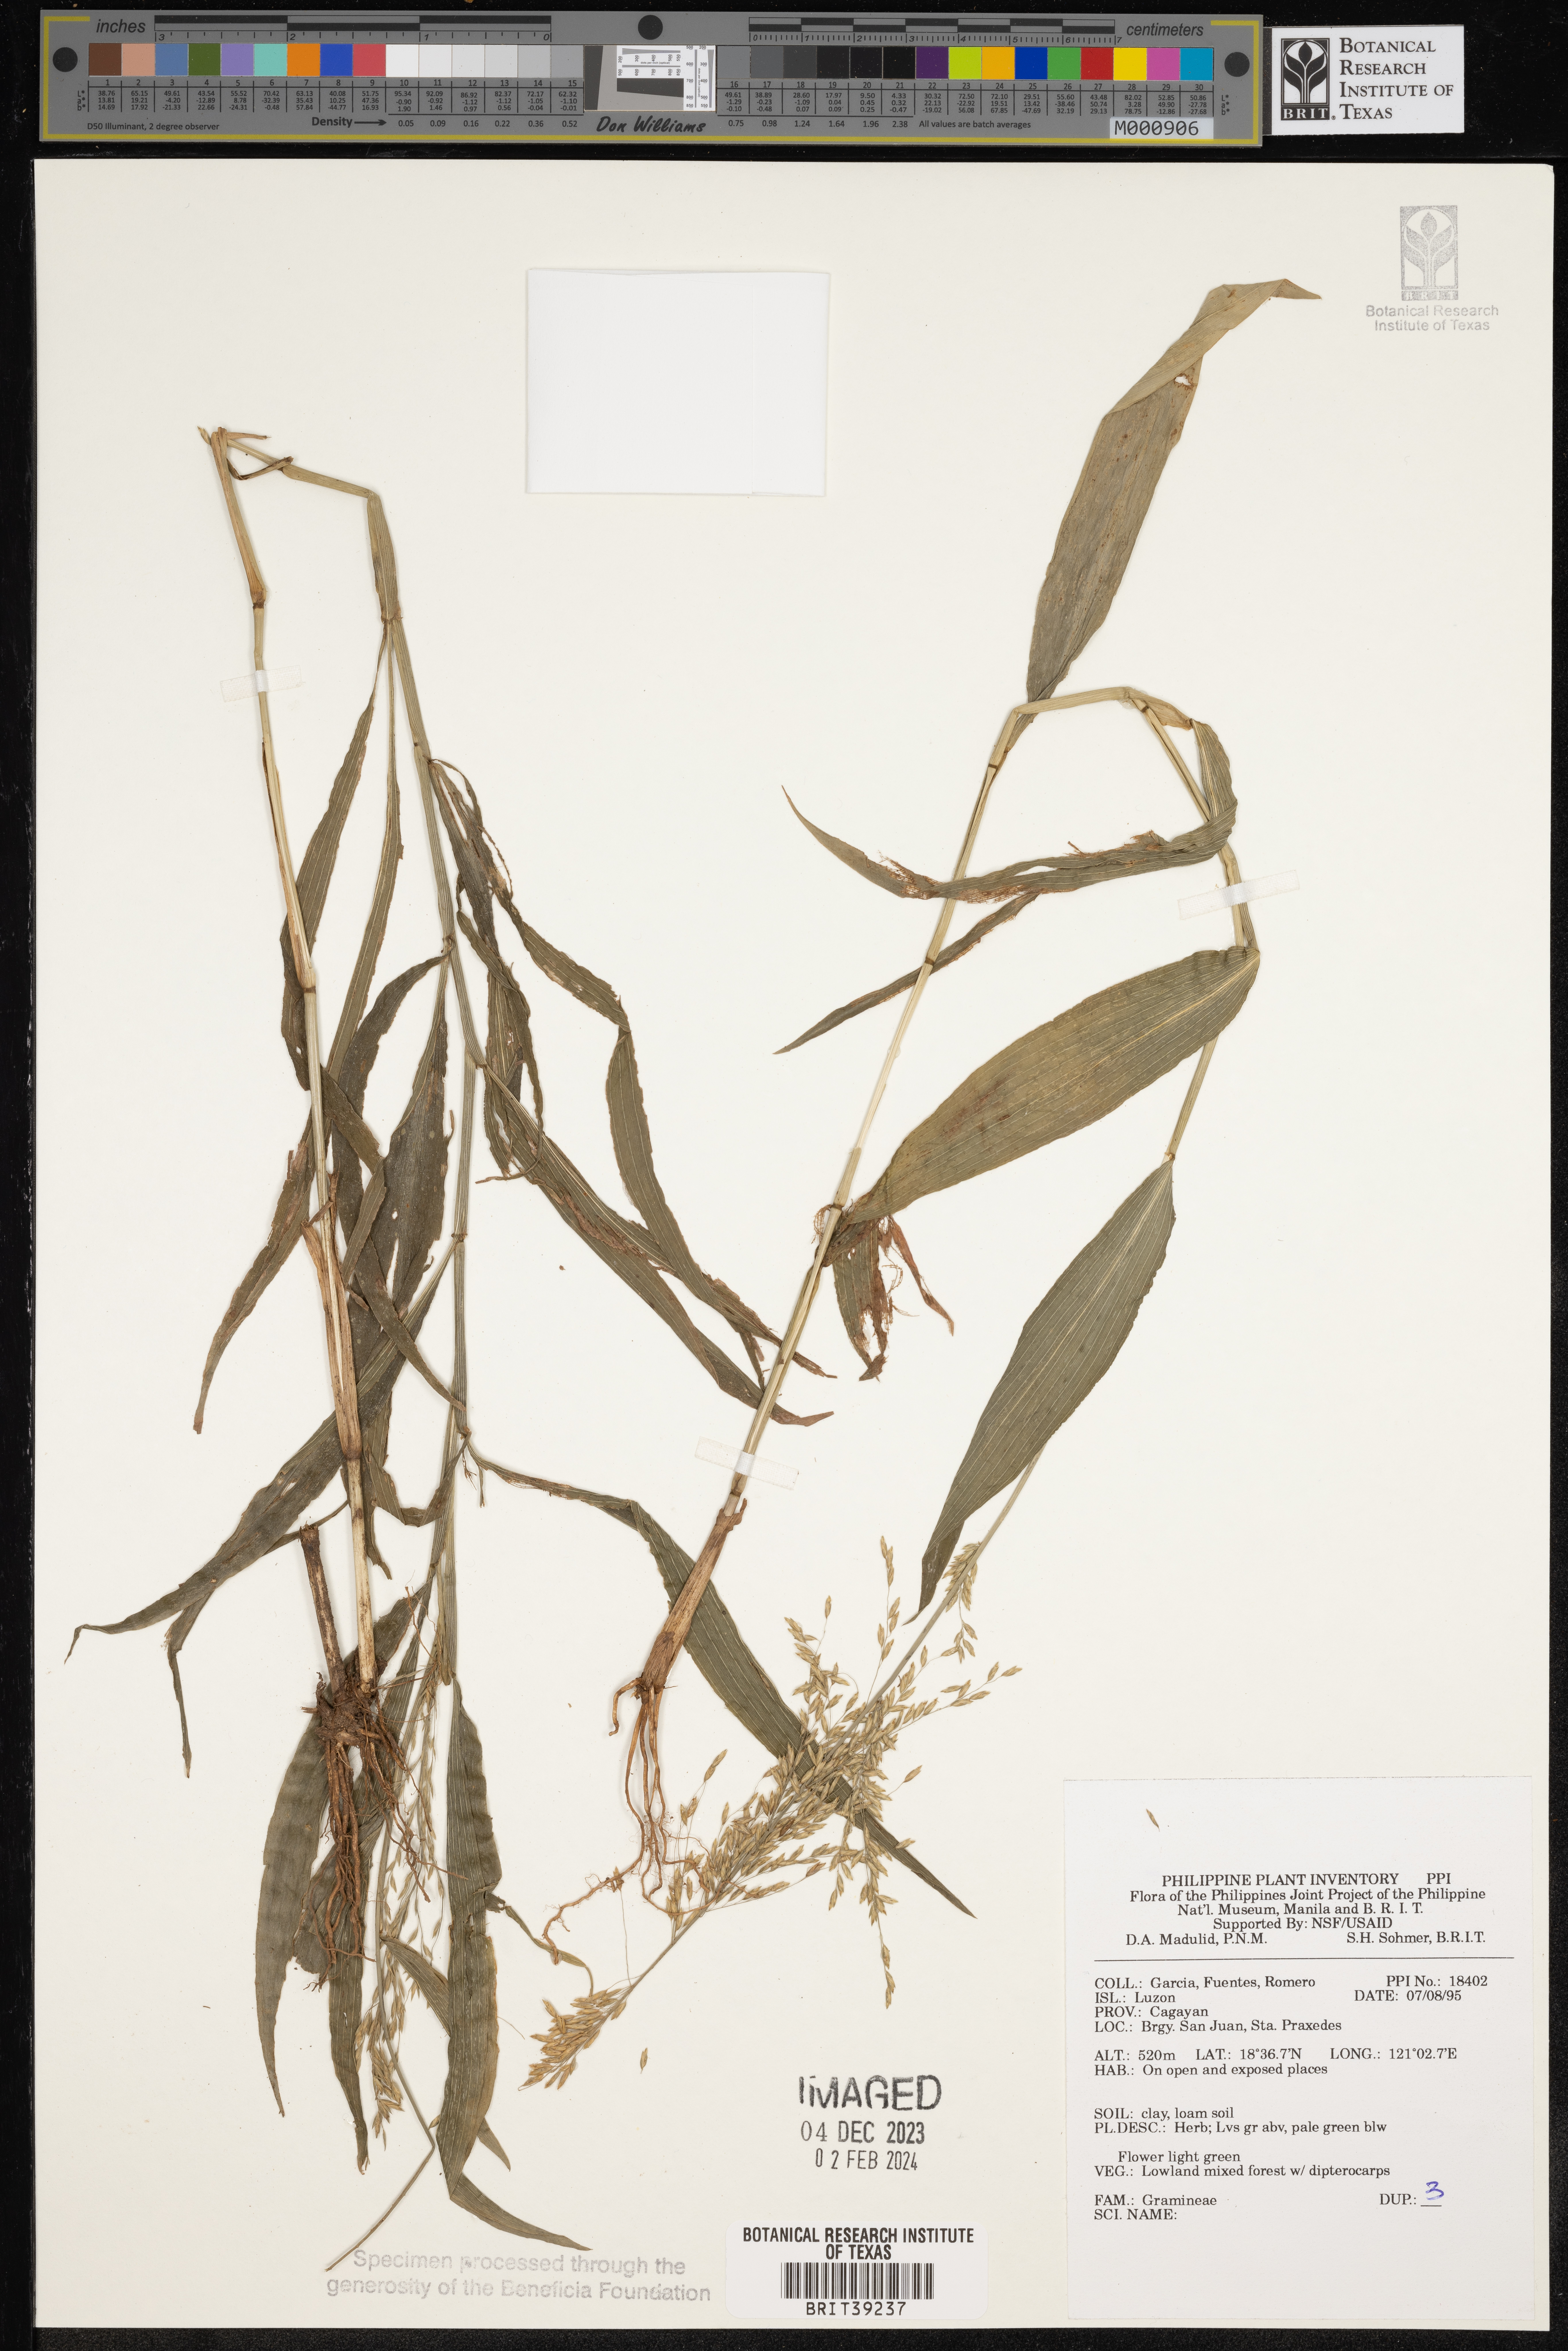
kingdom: Plantae
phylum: Tracheophyta
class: Liliopsida
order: Poales
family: Poaceae
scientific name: Poaceae
